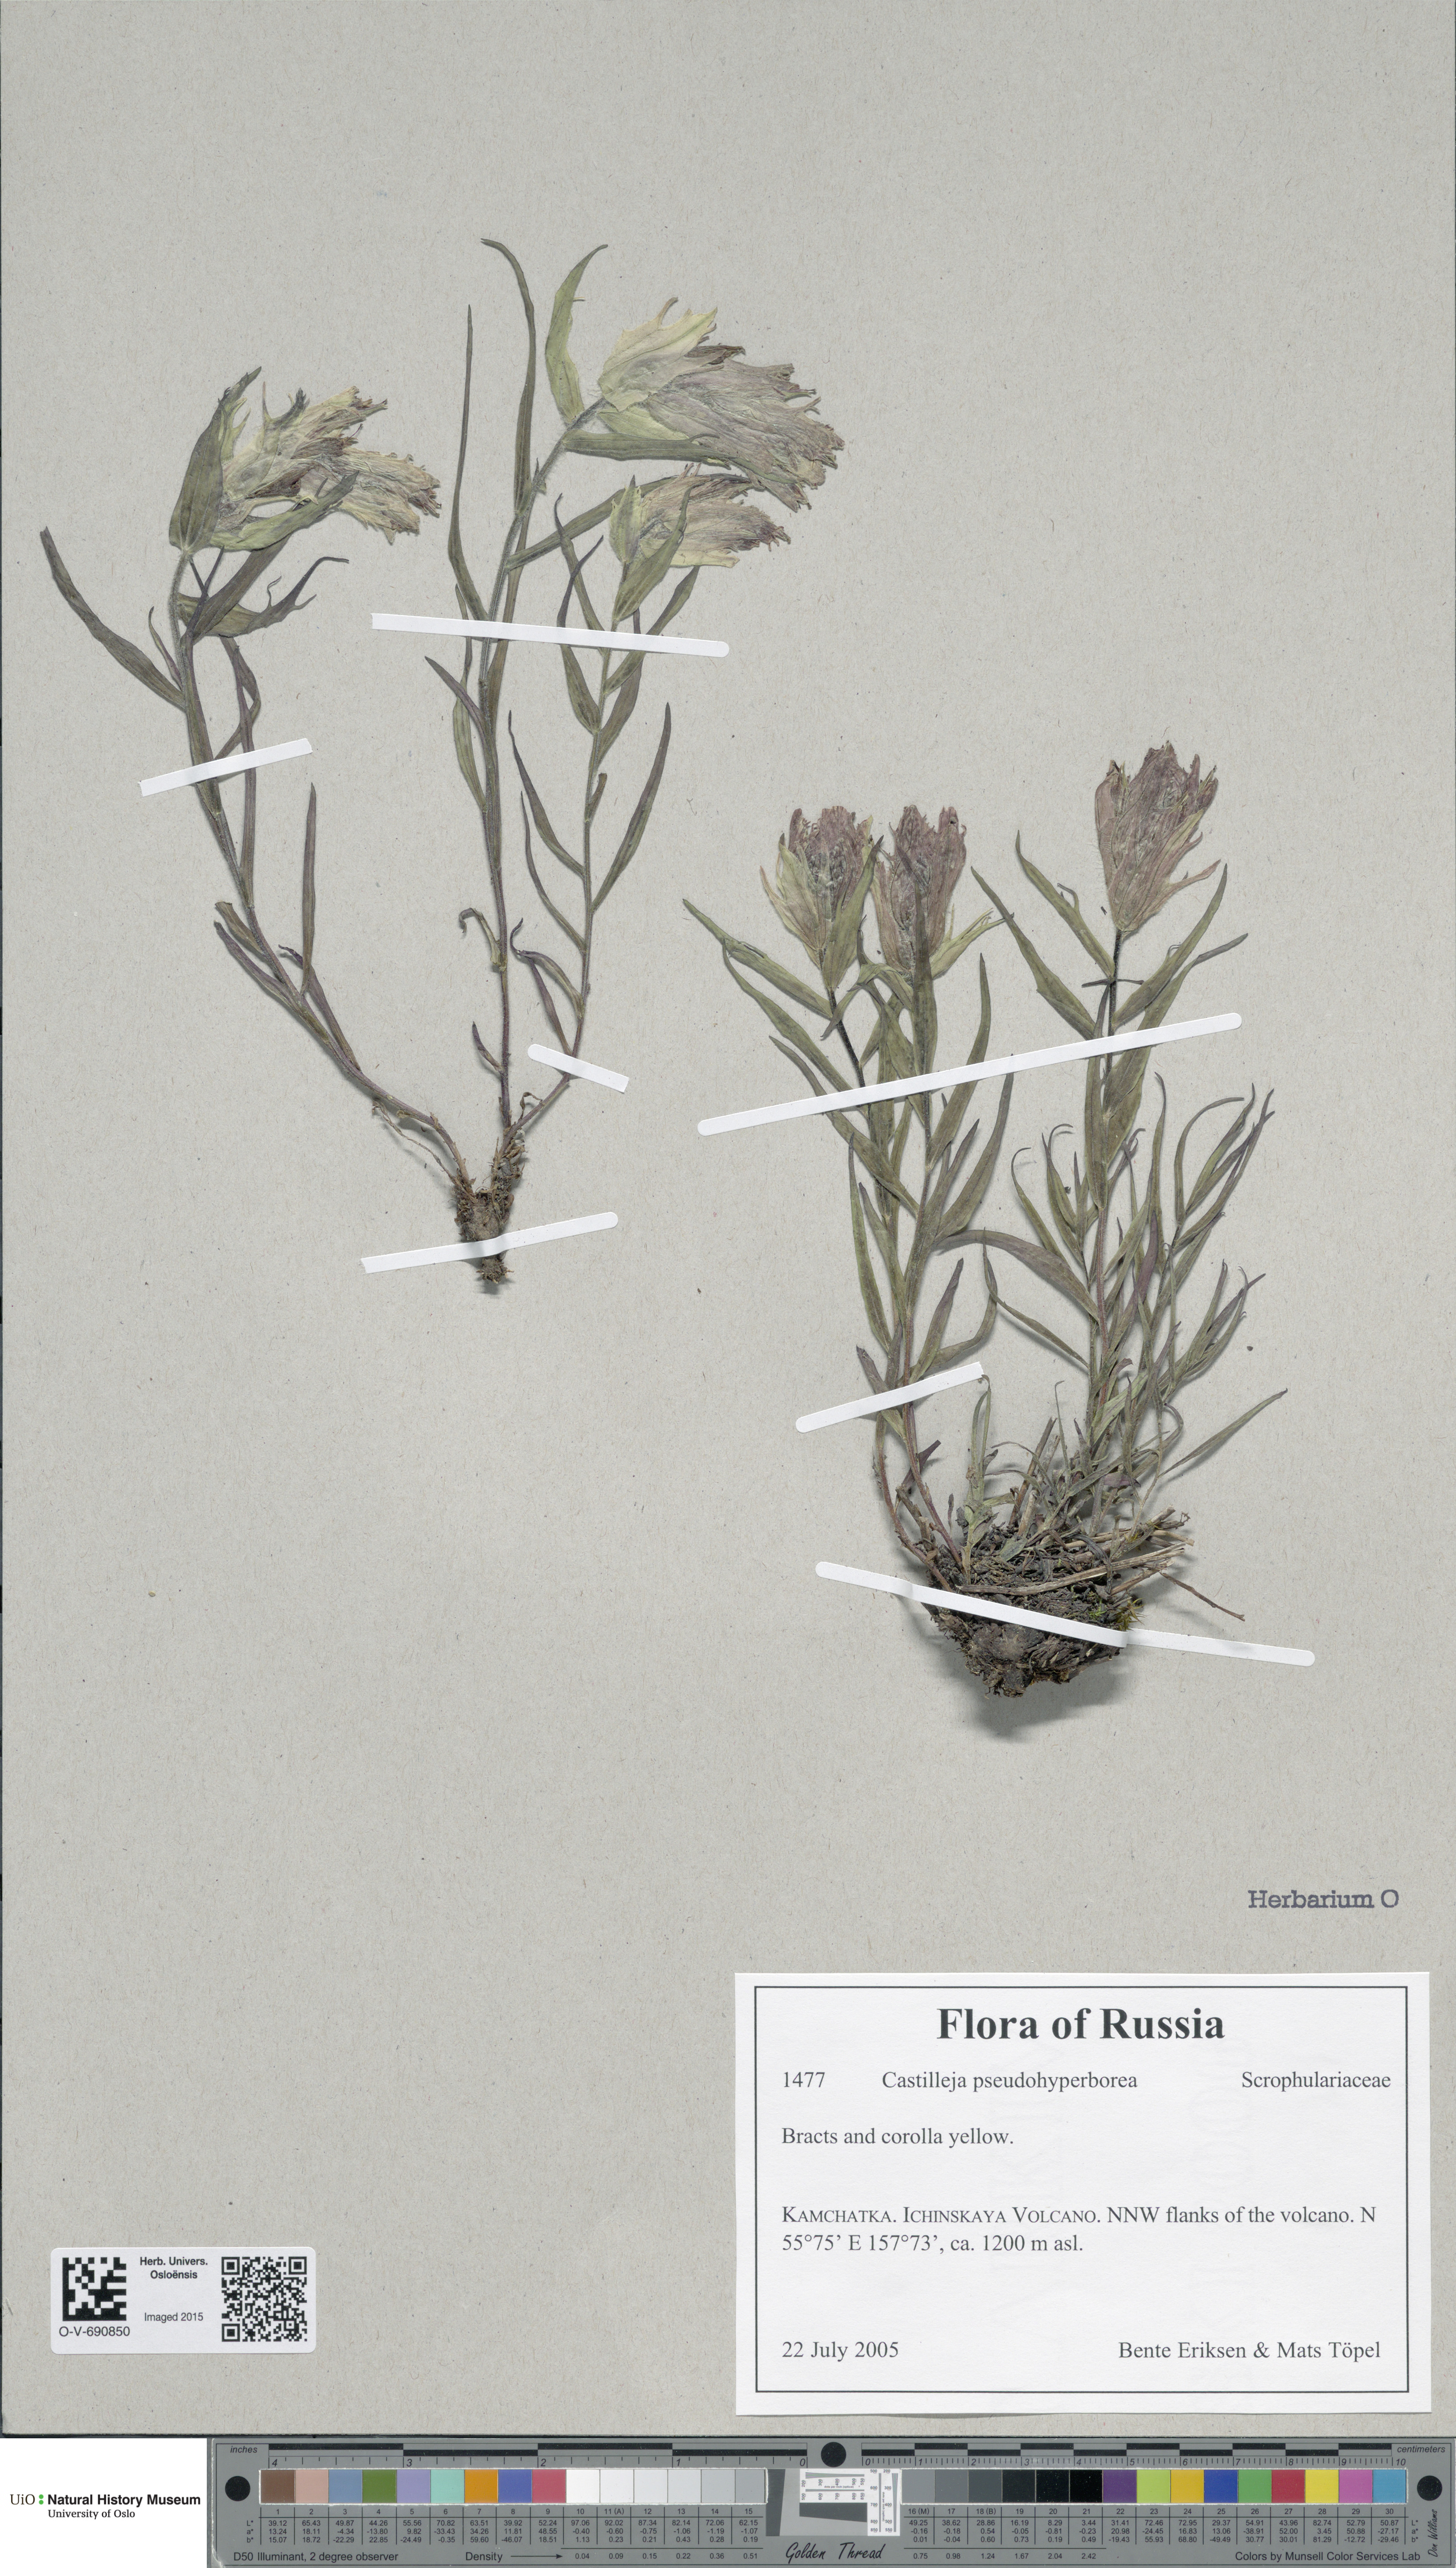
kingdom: Plantae
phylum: Tracheophyta
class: Magnoliopsida
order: Lamiales
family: Orobanchaceae
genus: Castilleja
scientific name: Castilleja pseudohyperborea
